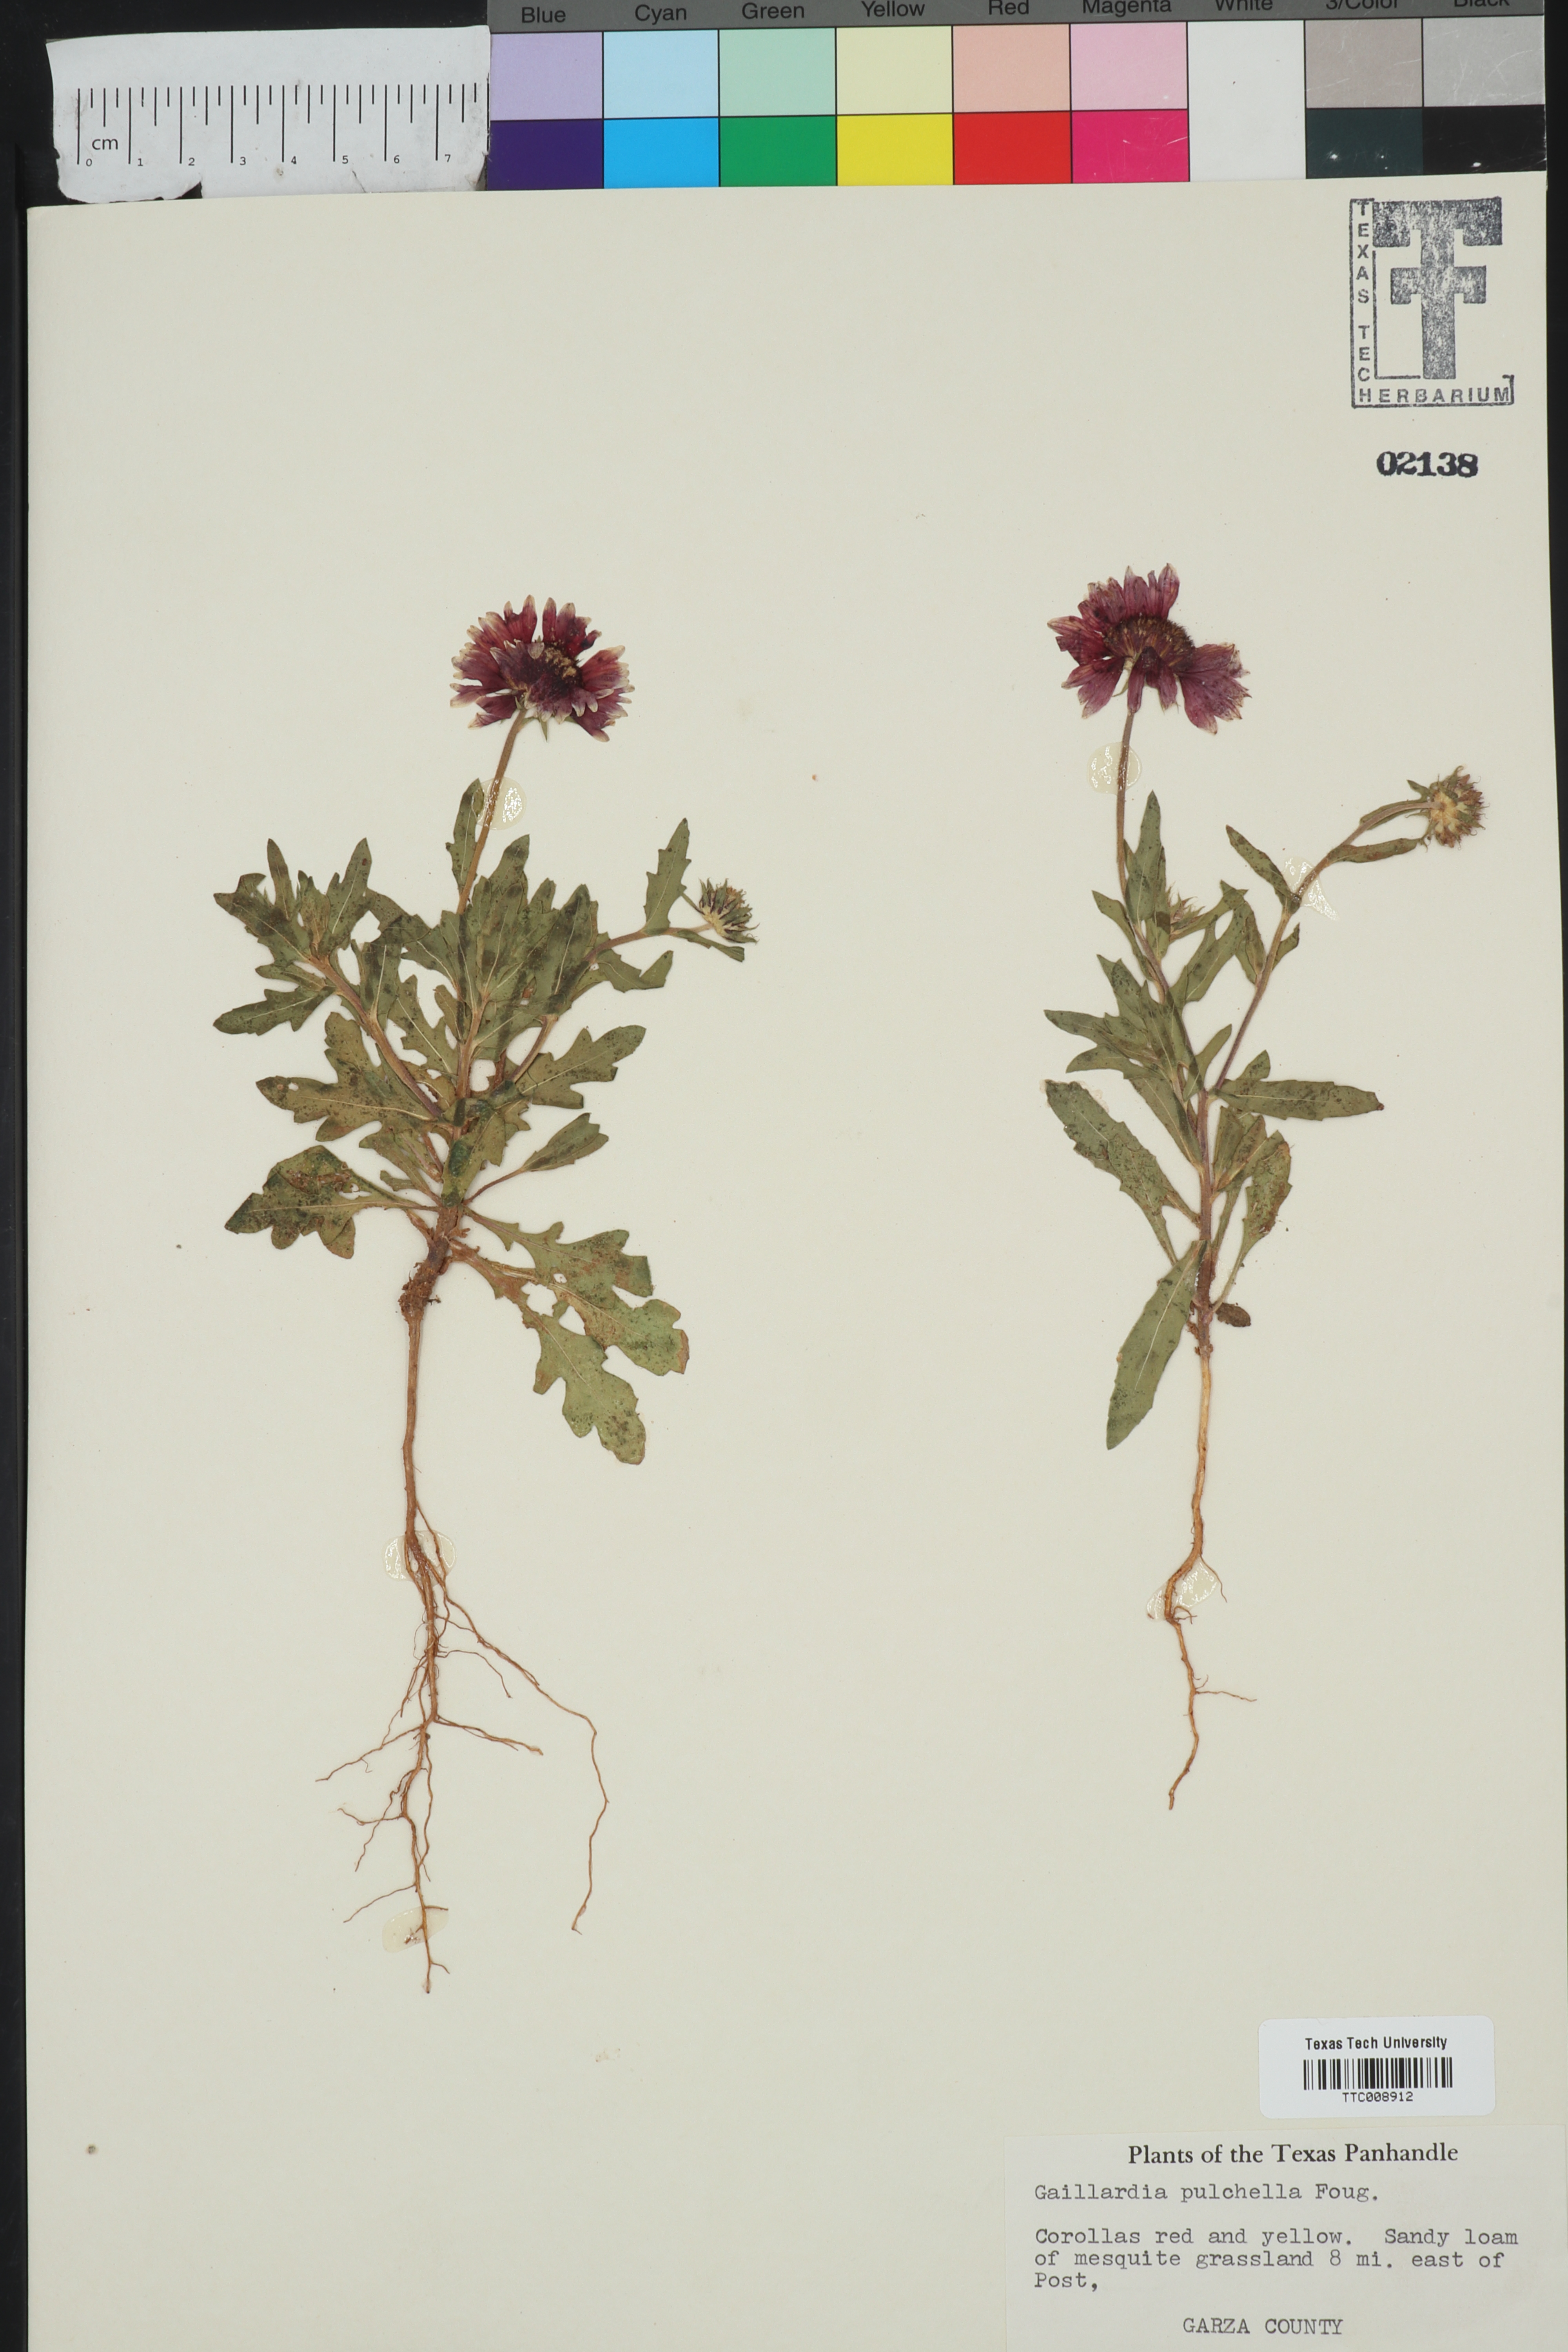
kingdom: Plantae
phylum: Tracheophyta
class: Magnoliopsida
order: Asterales
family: Asteraceae
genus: Gaillardia
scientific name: Gaillardia pulchella
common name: Firewheel
